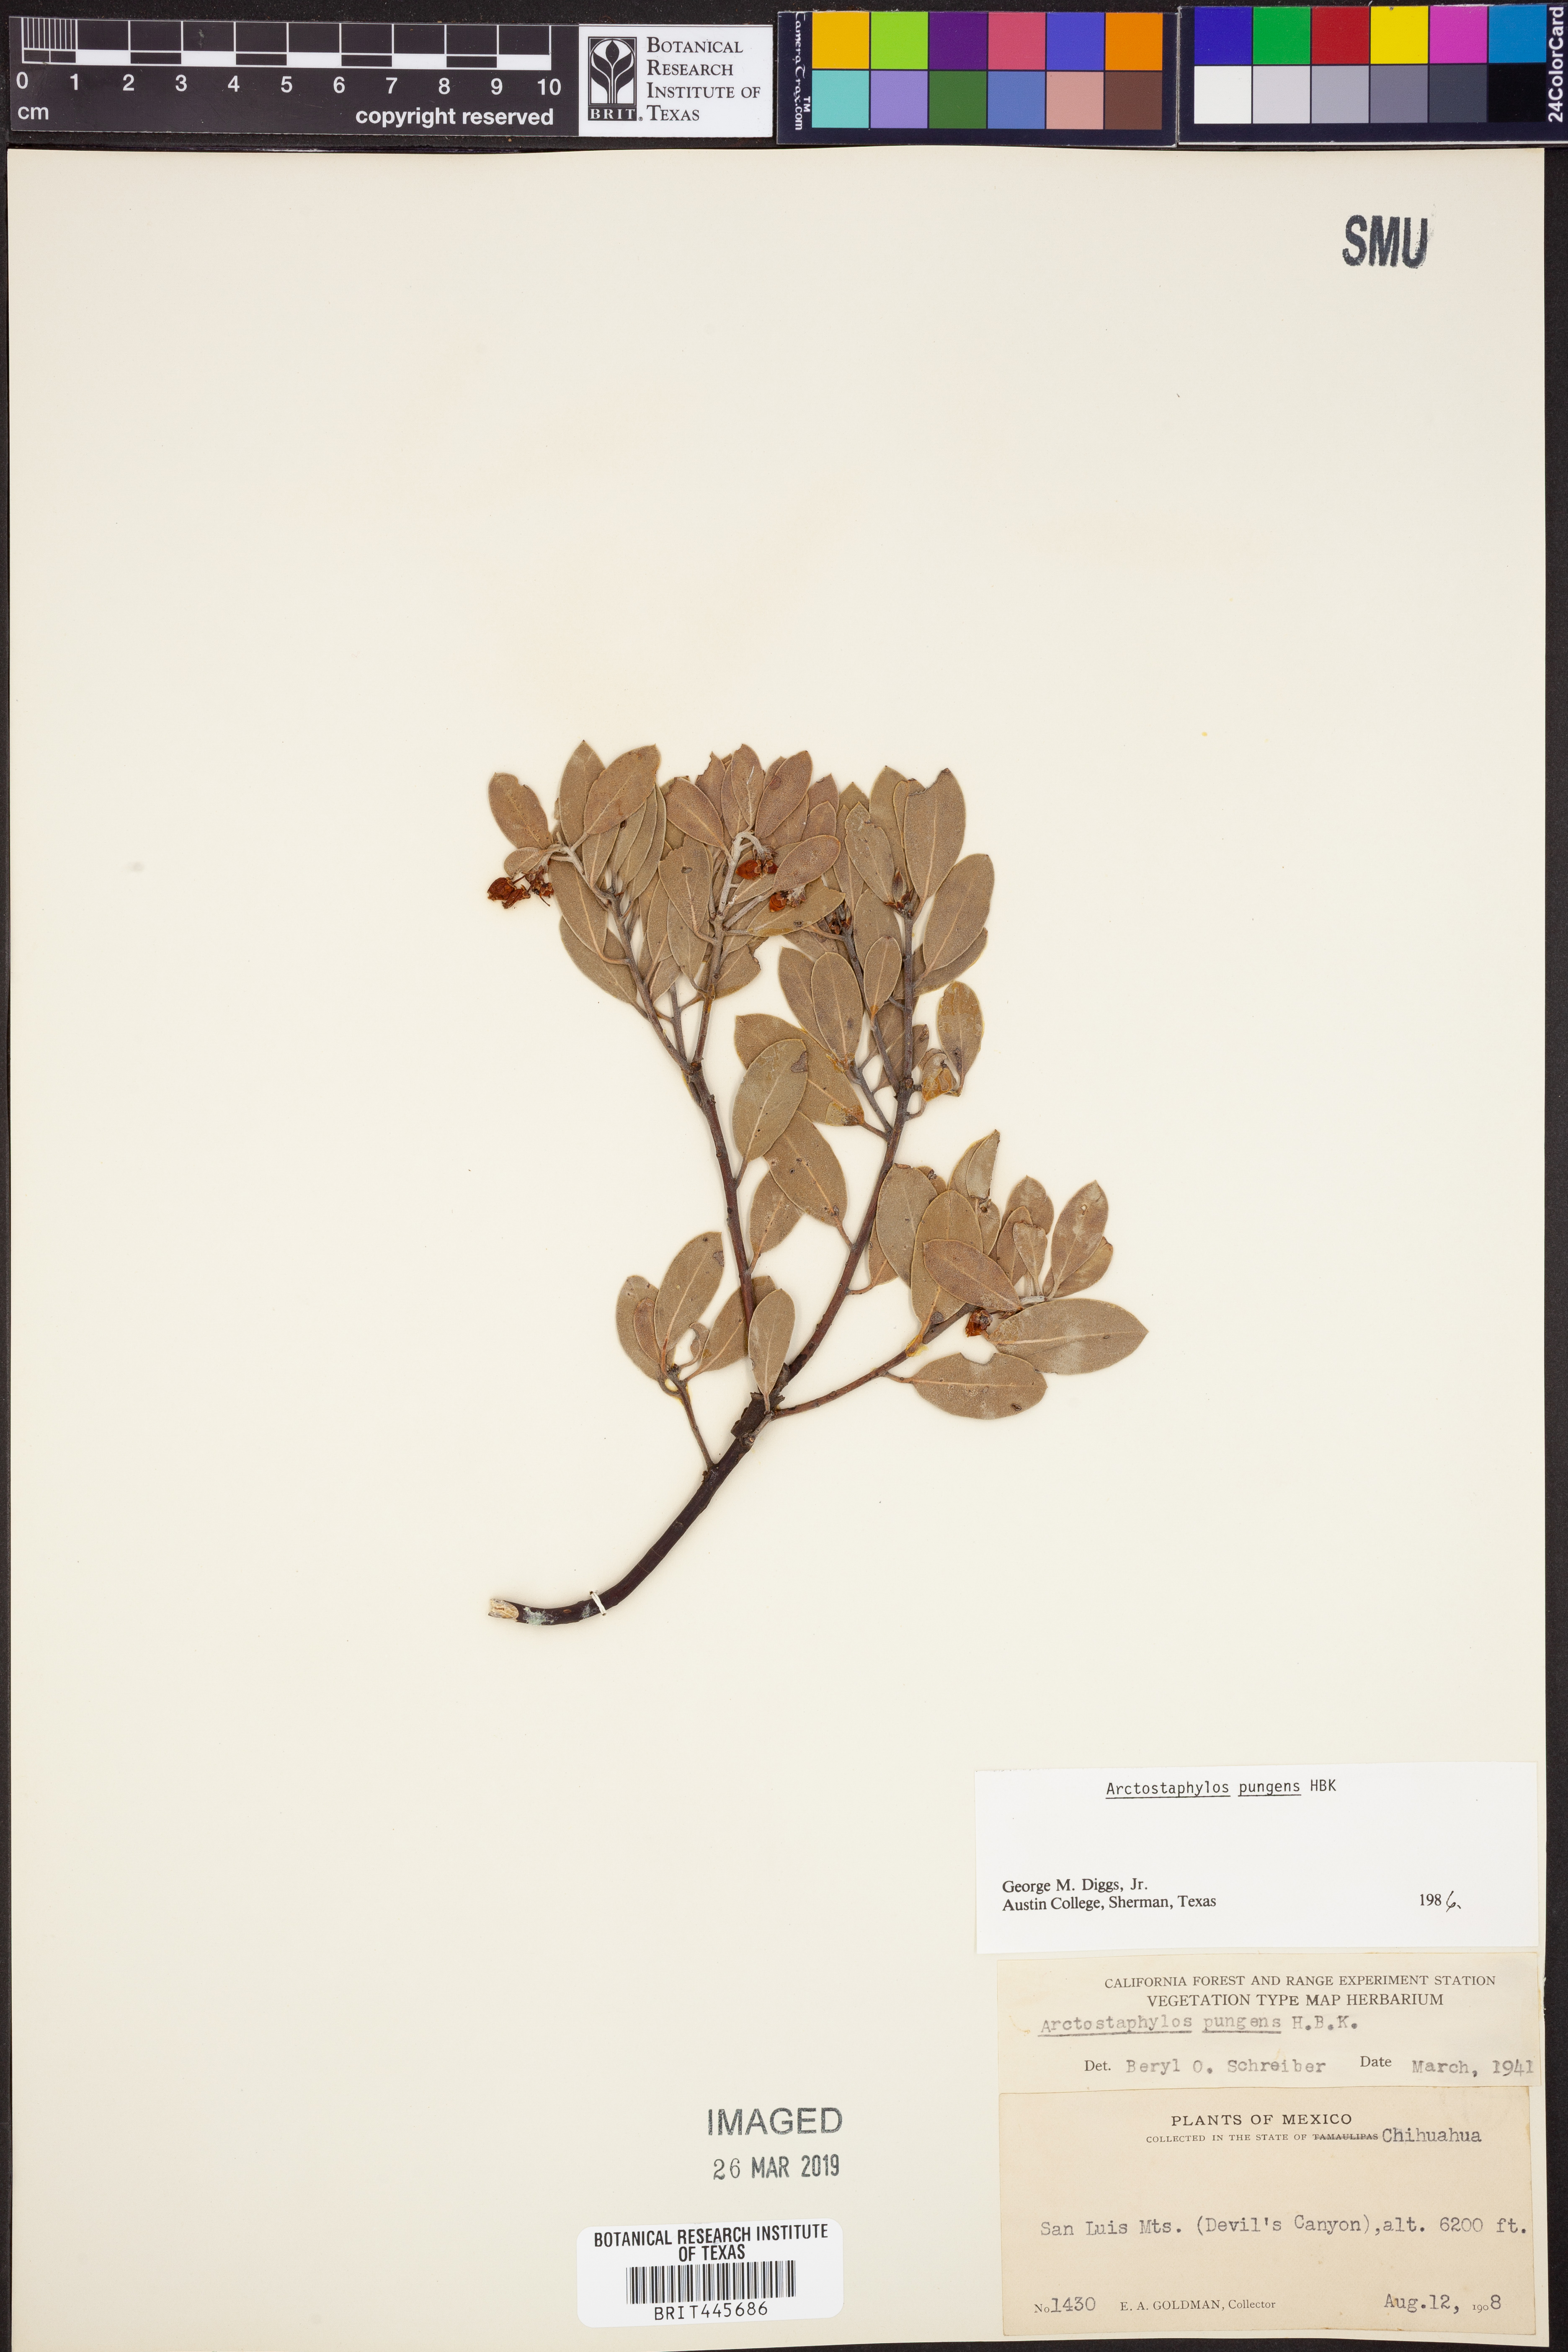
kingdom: Plantae
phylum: Tracheophyta
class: Magnoliopsida
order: Ericales
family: Ericaceae
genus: Arctostaphylos
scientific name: Arctostaphylos pungens
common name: Mexican manzanita
